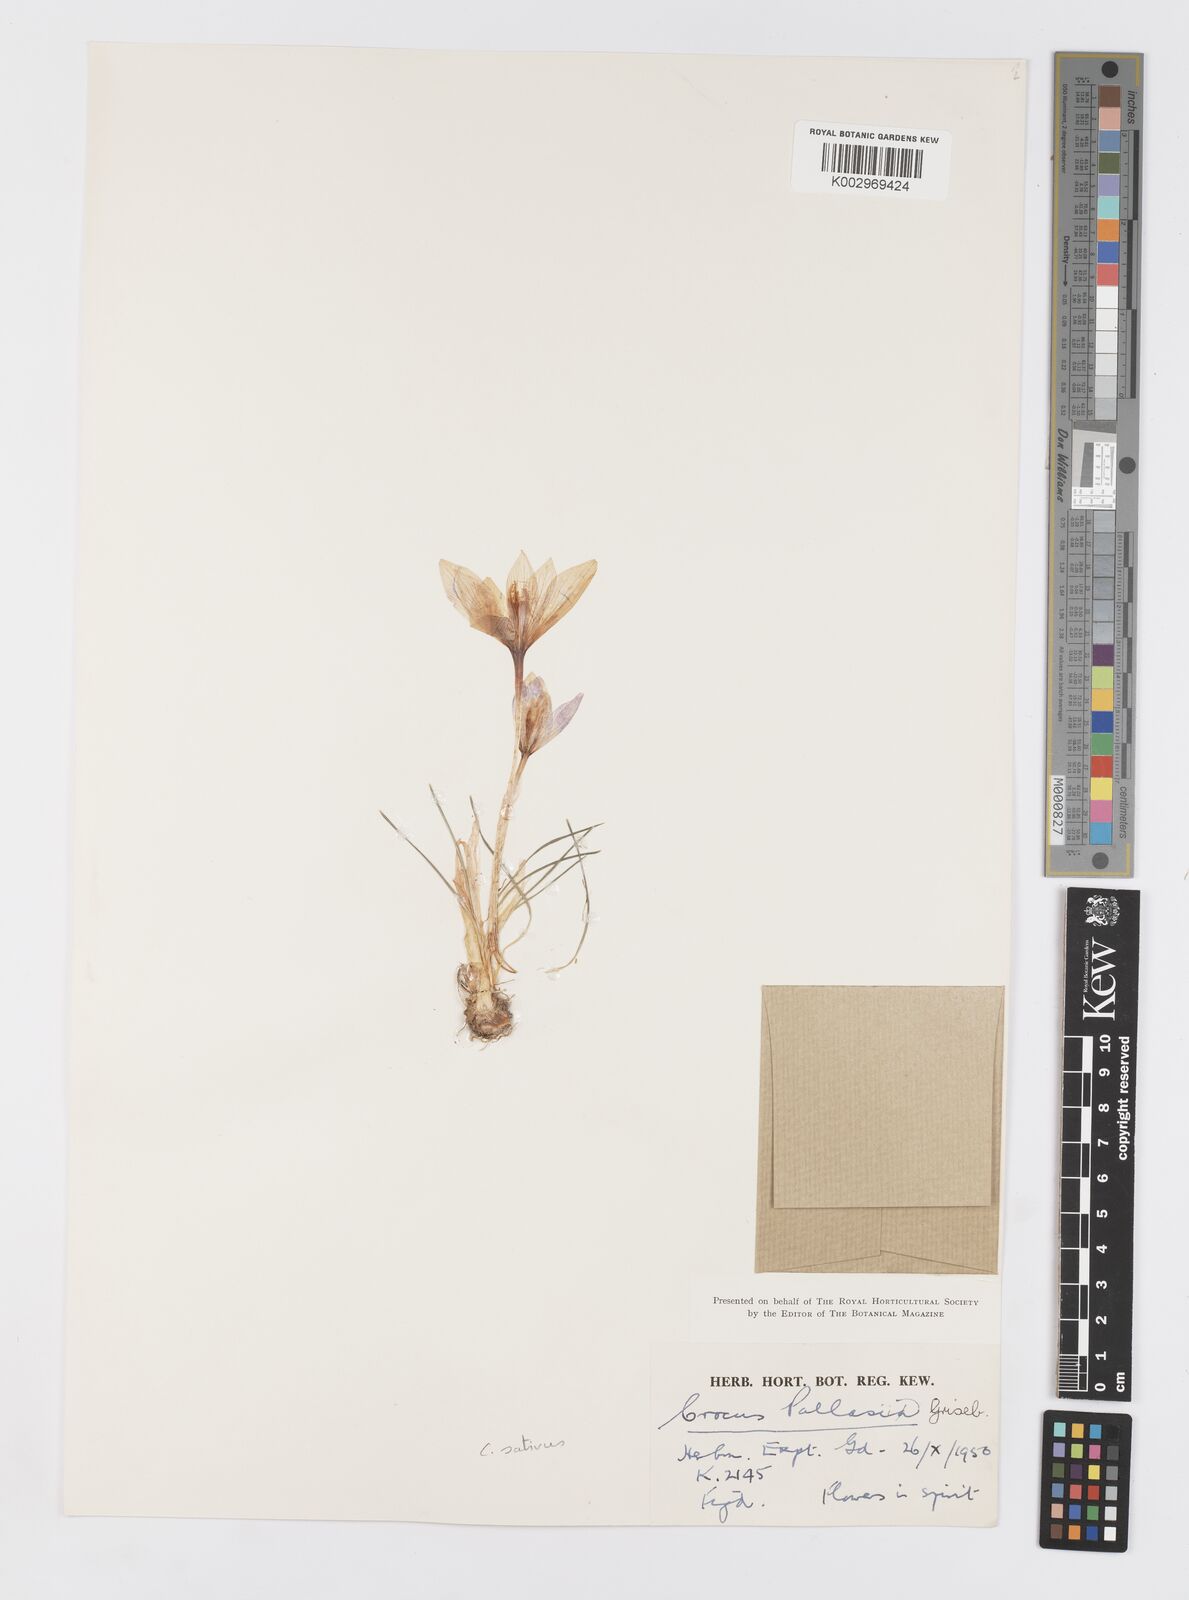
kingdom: Plantae
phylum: Tracheophyta
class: Liliopsida
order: Asparagales
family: Iridaceae
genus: Crocus
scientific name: Crocus sativus
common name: Saffron crocus
